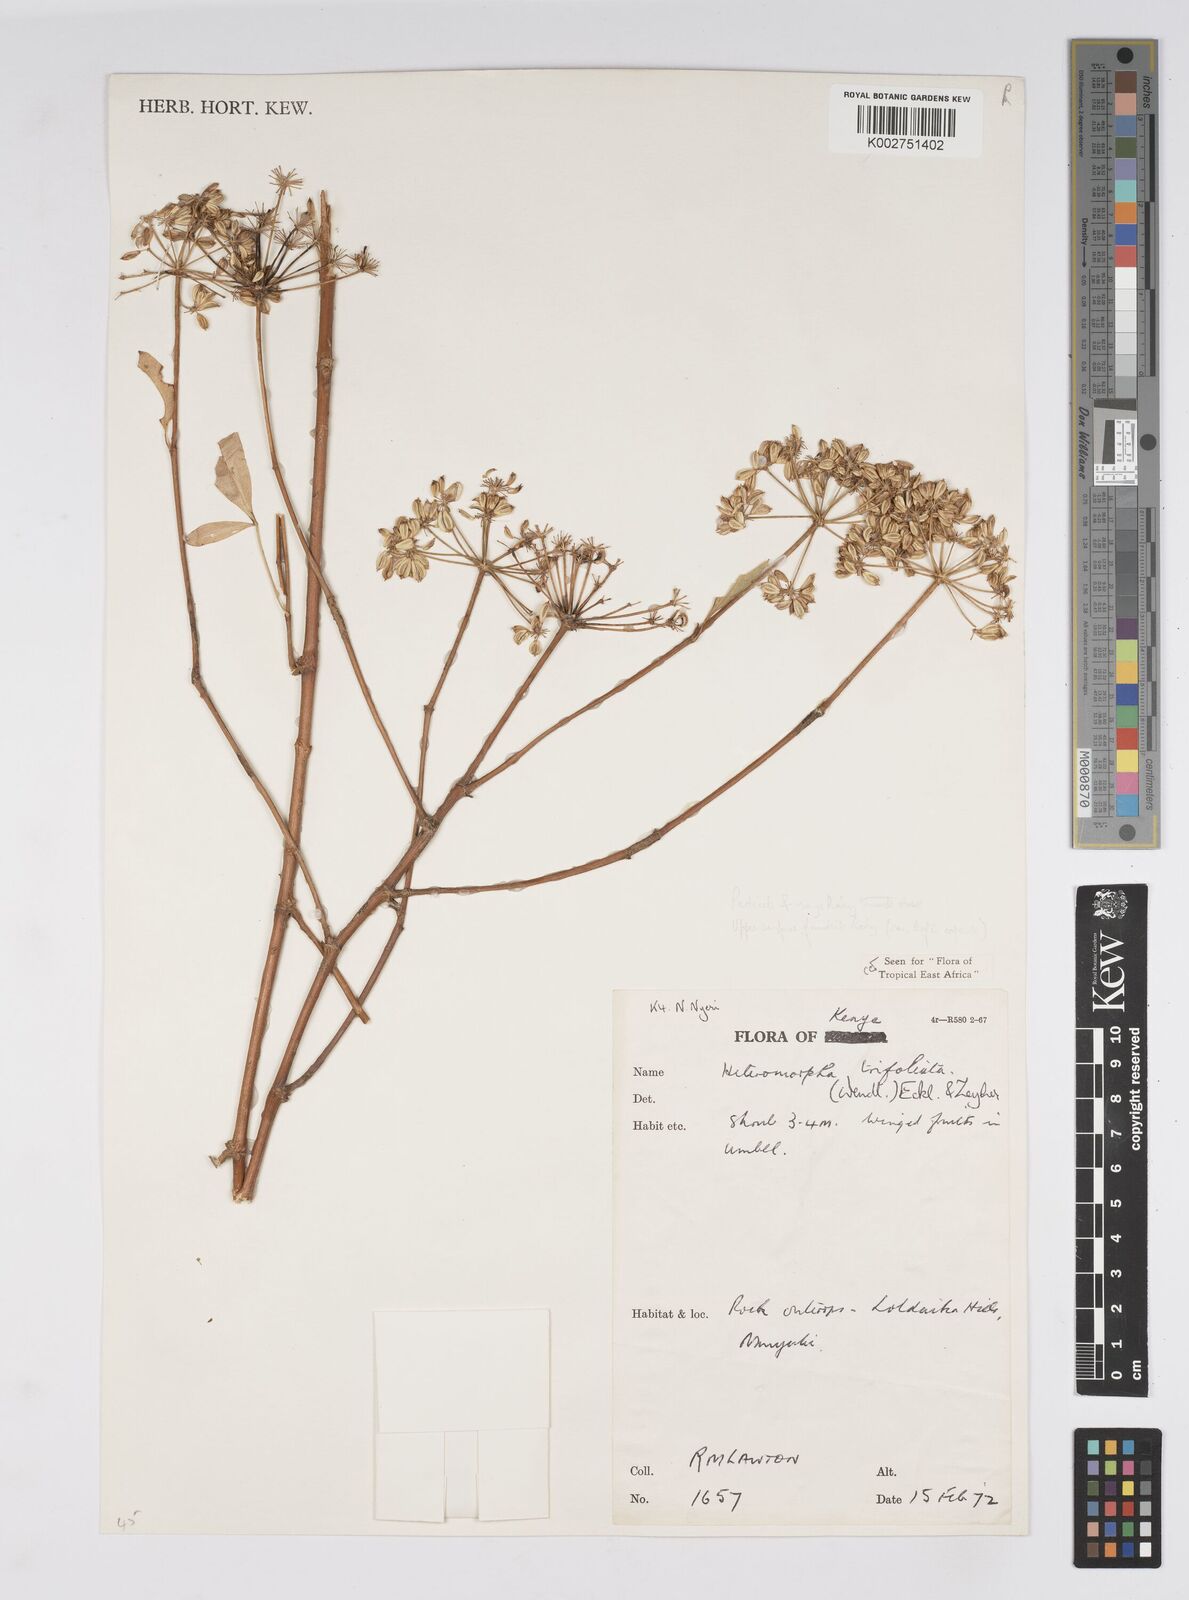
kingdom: Plantae
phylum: Tracheophyta
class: Magnoliopsida
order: Apiales
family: Apiaceae
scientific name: Apiaceae
